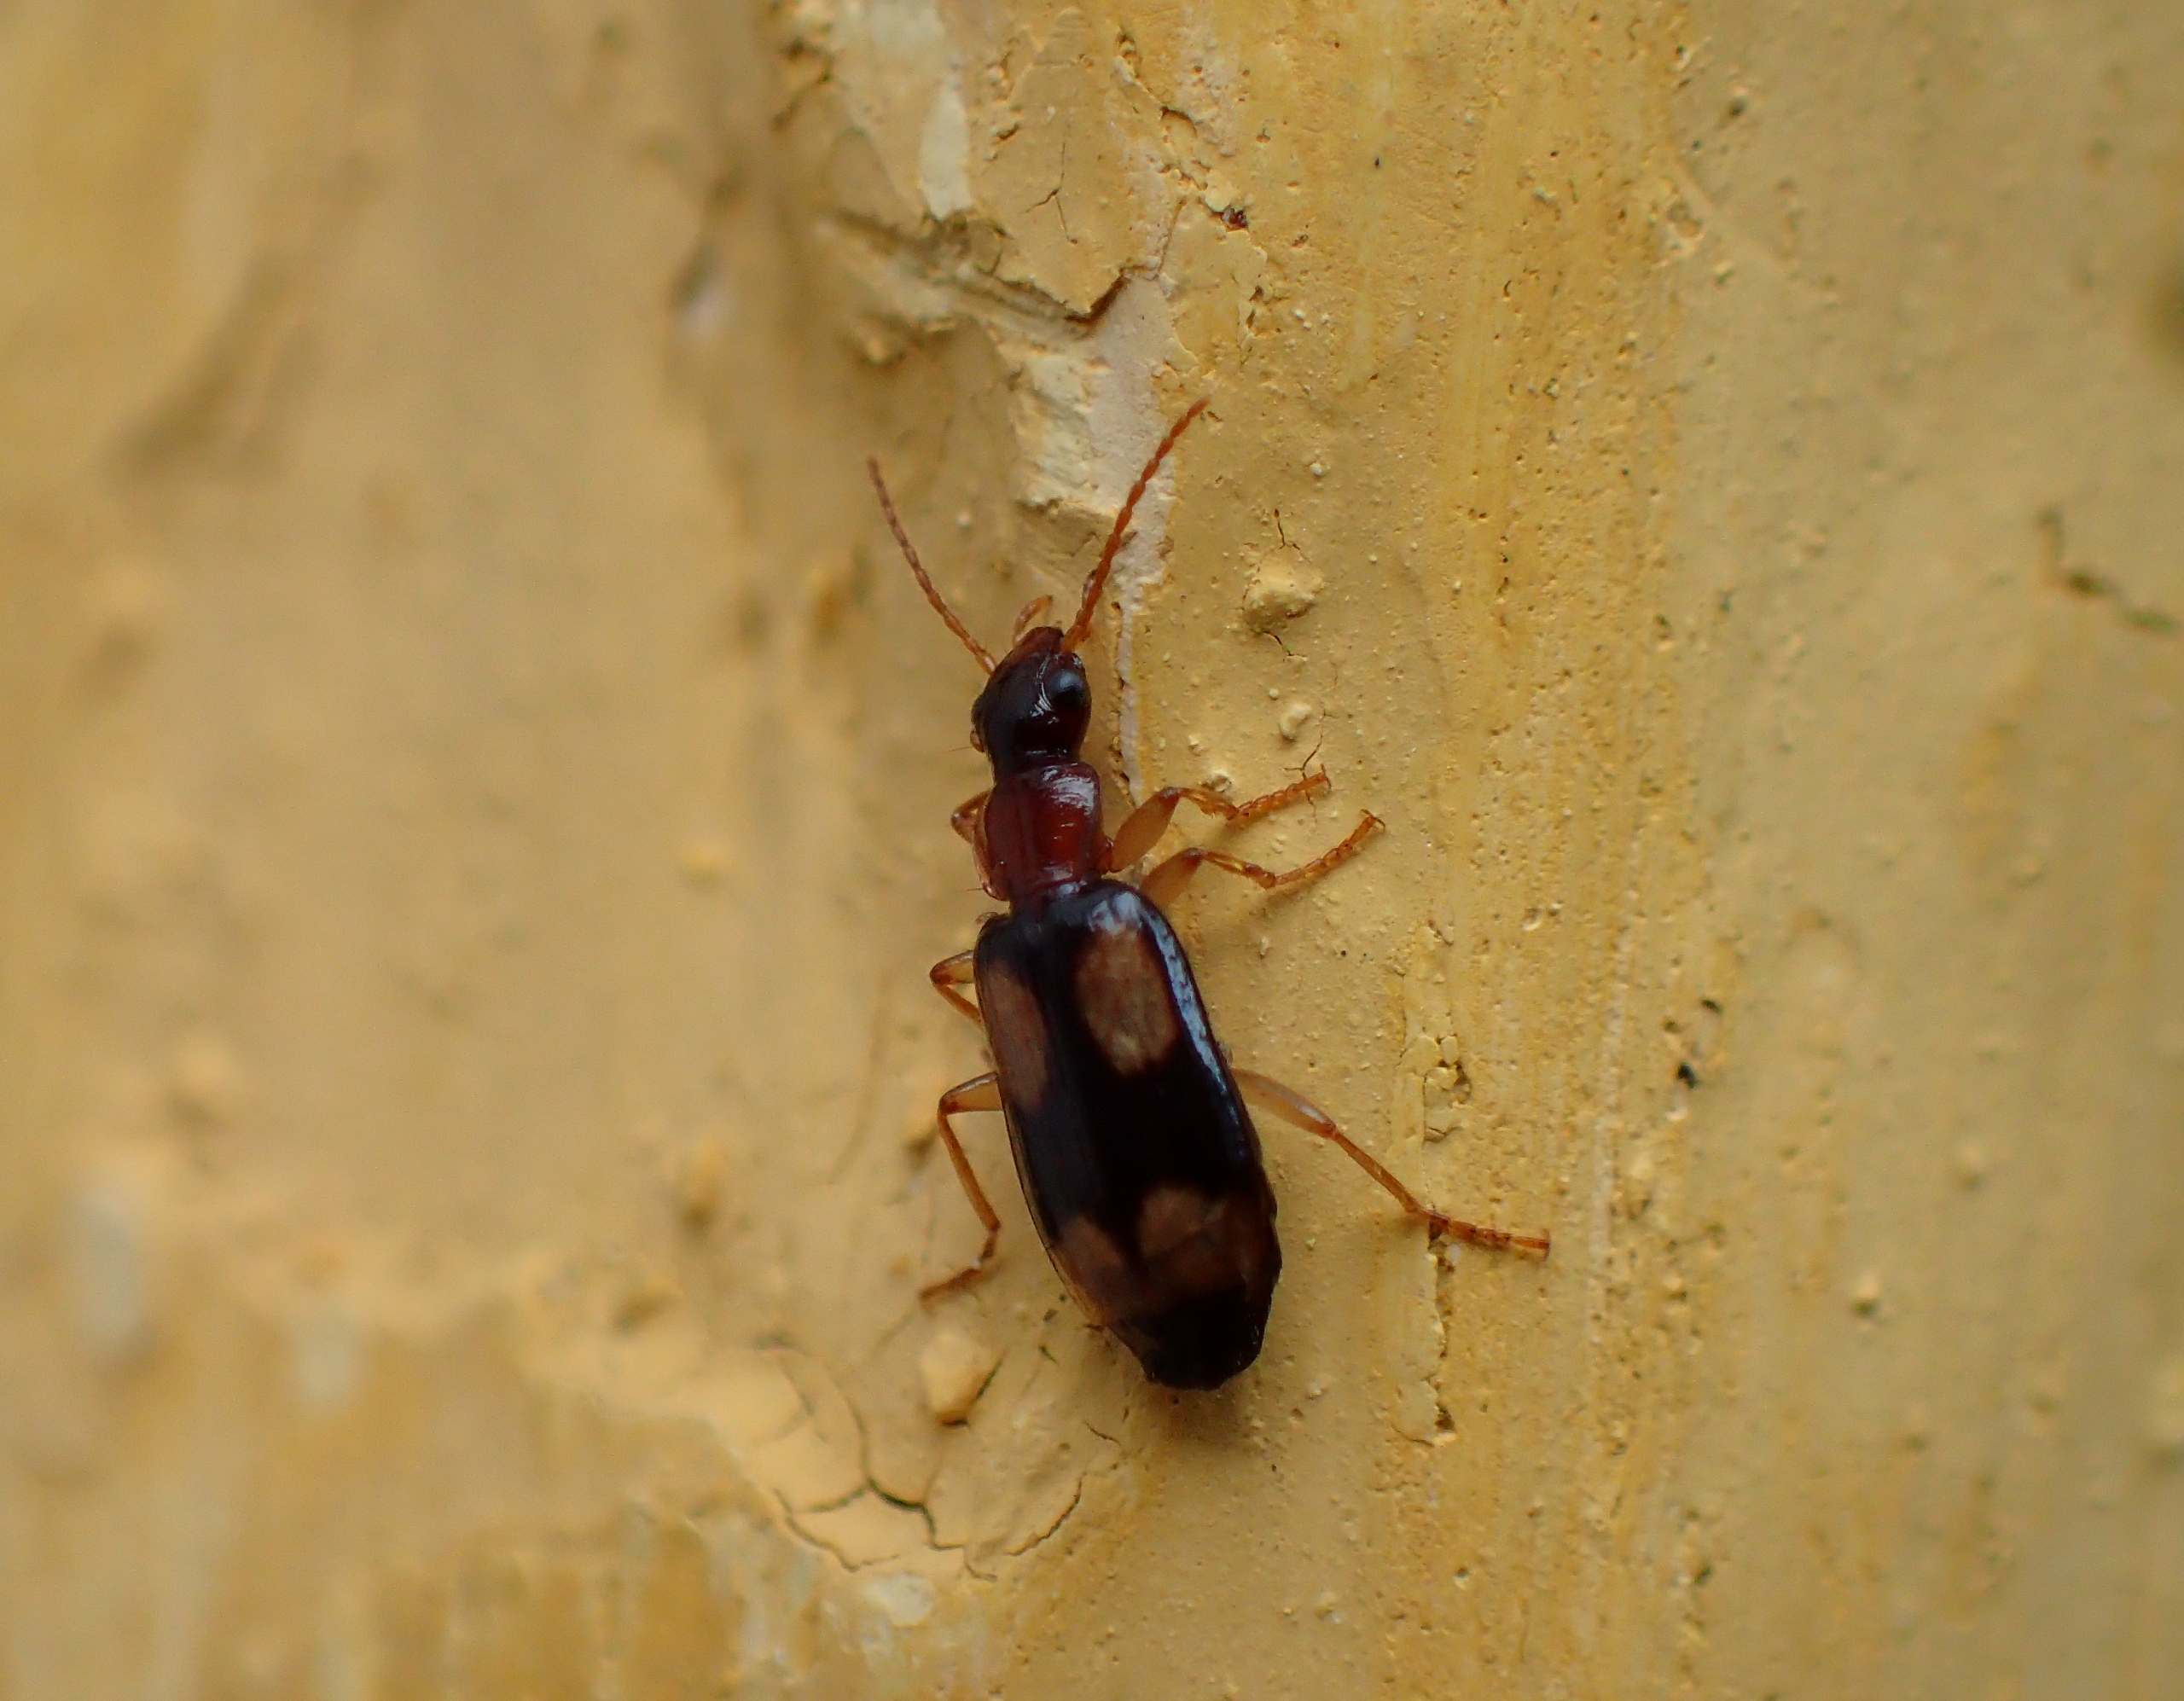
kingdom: Animalia
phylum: Arthropoda
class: Insecta
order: Coleoptera
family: Carabidae
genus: Dromius
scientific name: Dromius quadrimaculatus
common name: Fireplettet barkløber
